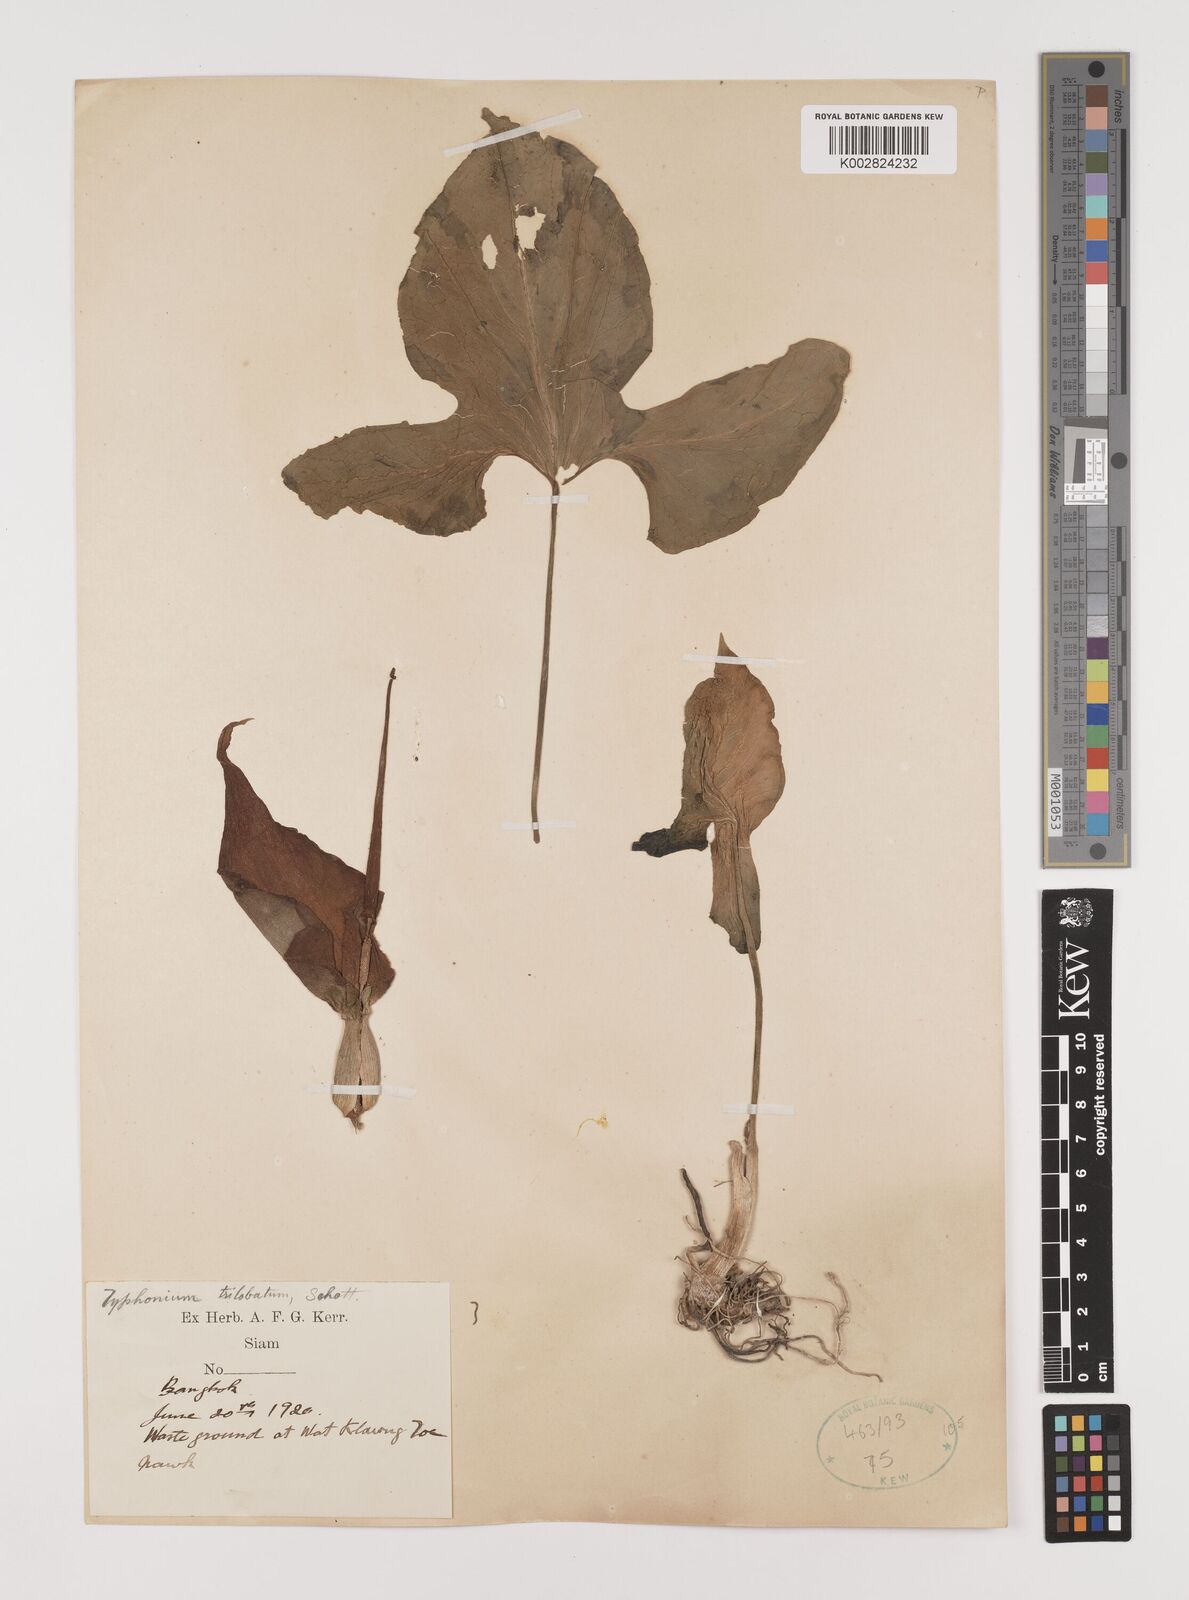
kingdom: Plantae
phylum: Tracheophyta
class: Liliopsida
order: Alismatales
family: Araceae
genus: Typhonium
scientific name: Typhonium trilobatum
